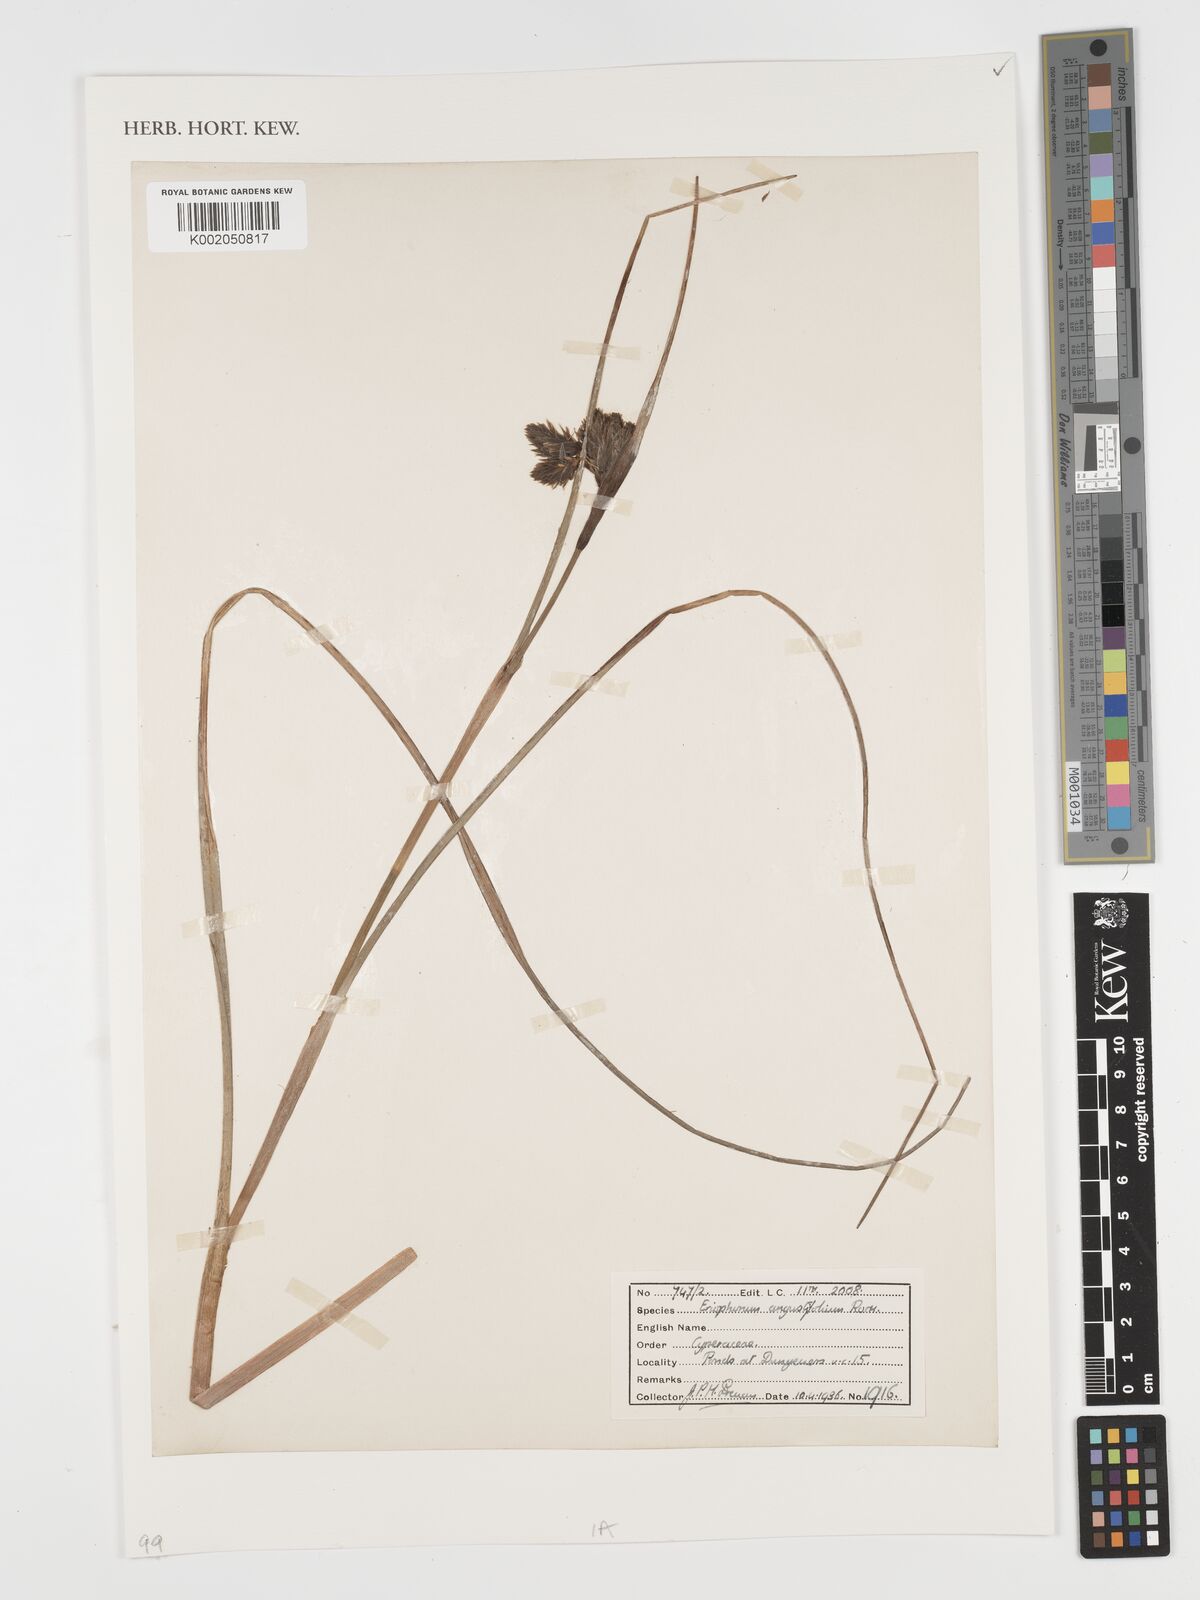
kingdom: Plantae
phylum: Tracheophyta
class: Liliopsida
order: Poales
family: Cyperaceae
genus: Eriophorum
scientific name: Eriophorum angustifolium
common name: Common cottongrass
